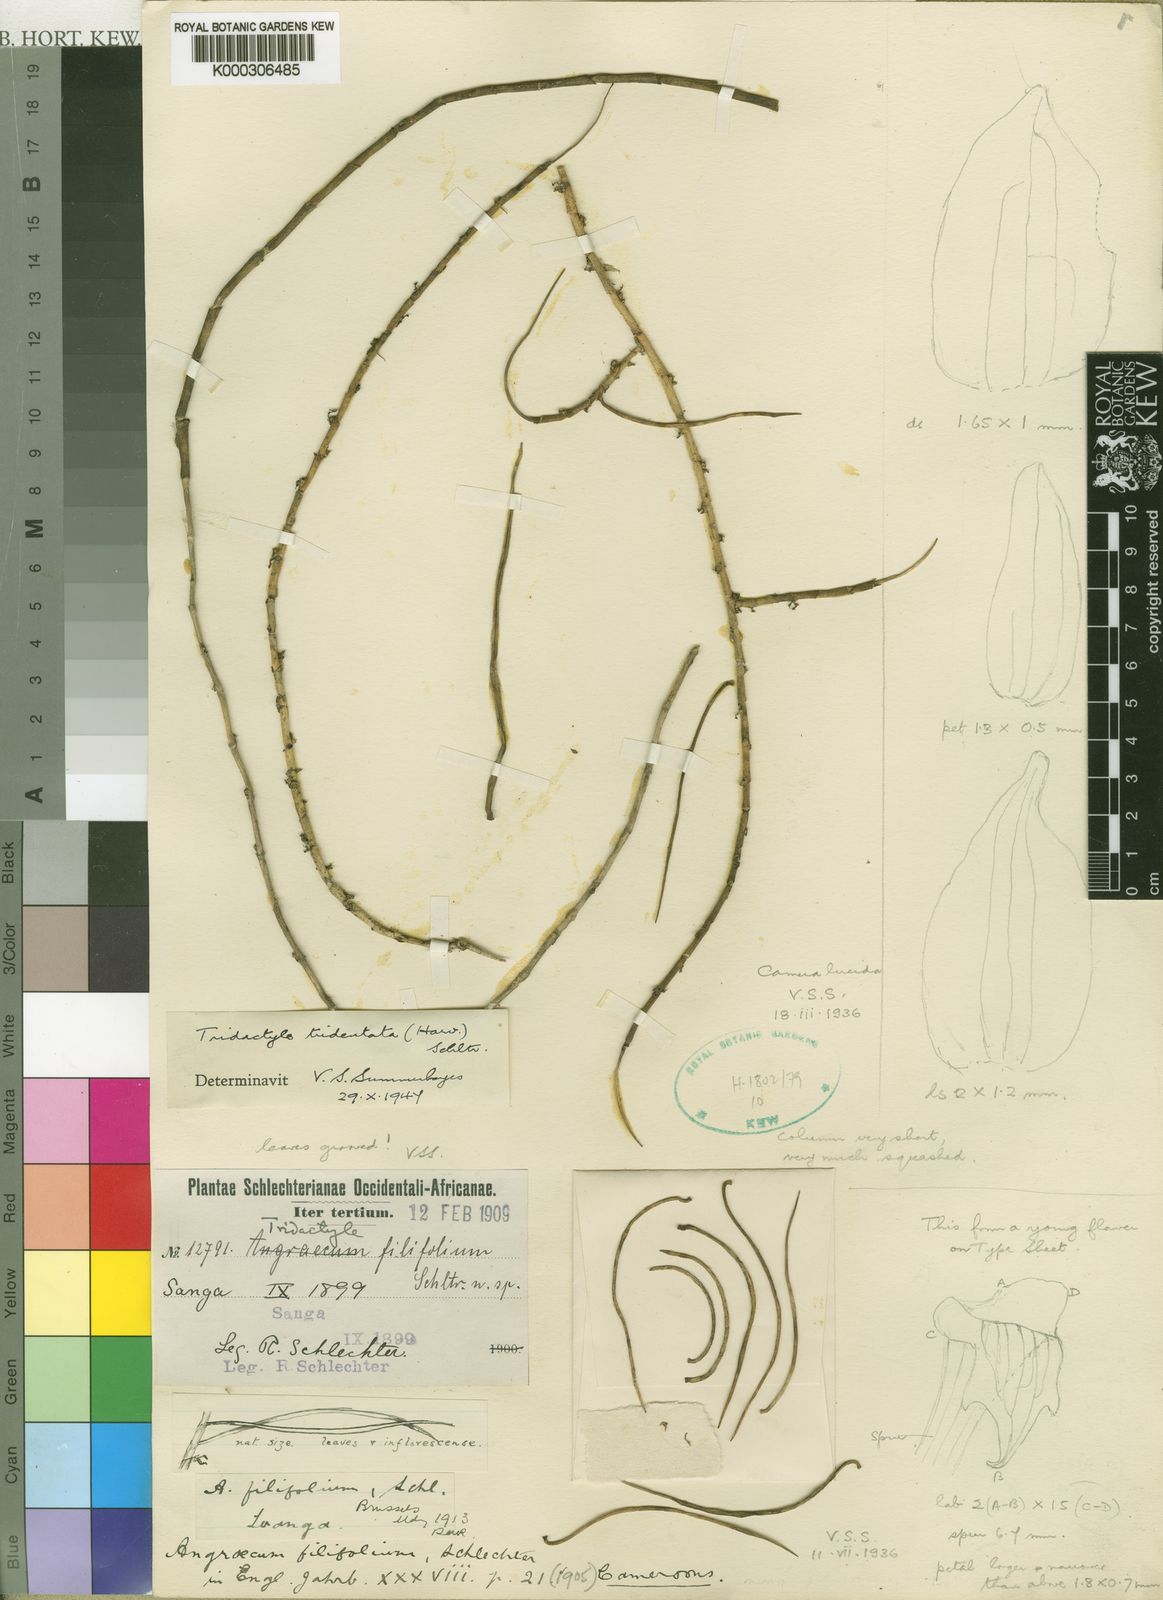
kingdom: Plantae
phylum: Tracheophyta
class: Liliopsida
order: Asparagales
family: Orchidaceae
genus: Tridactyle
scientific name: Tridactyle filifolia
